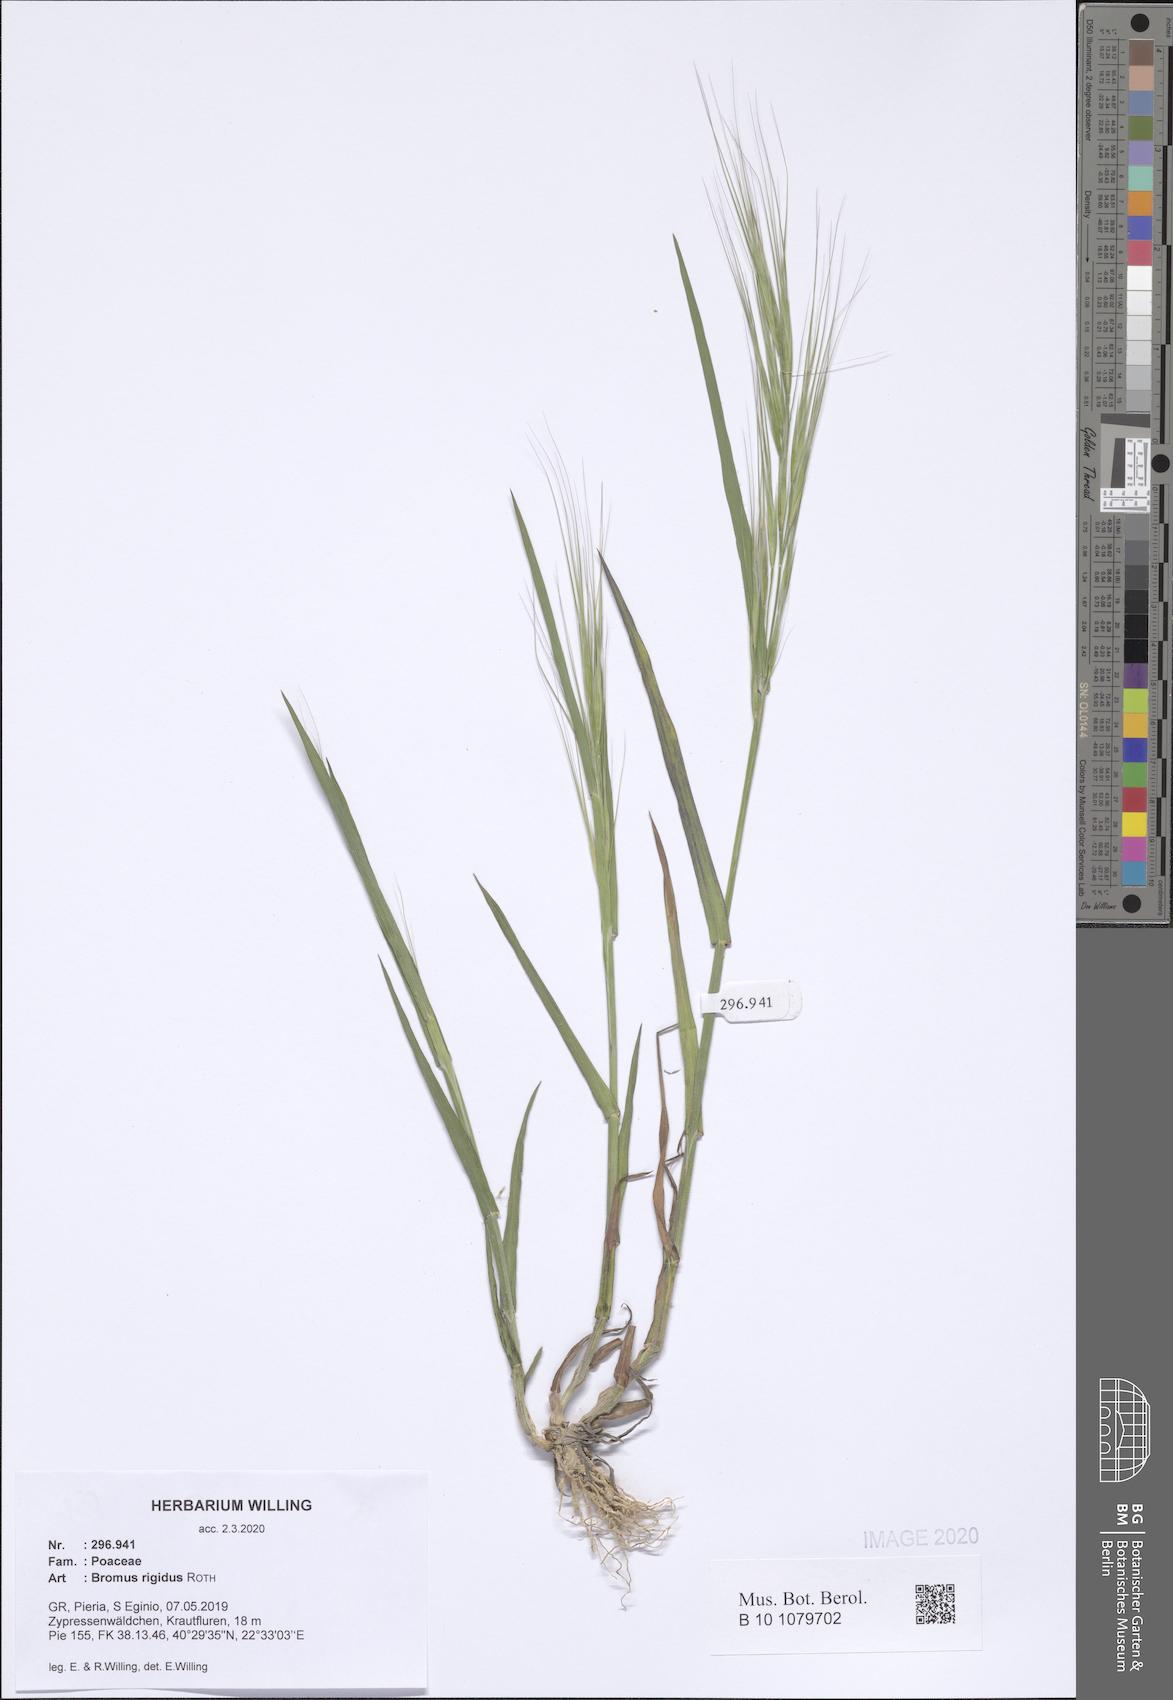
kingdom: Plantae
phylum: Tracheophyta
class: Liliopsida
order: Poales
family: Poaceae
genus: Bromus
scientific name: Bromus rigidus
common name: Ripgut brome
